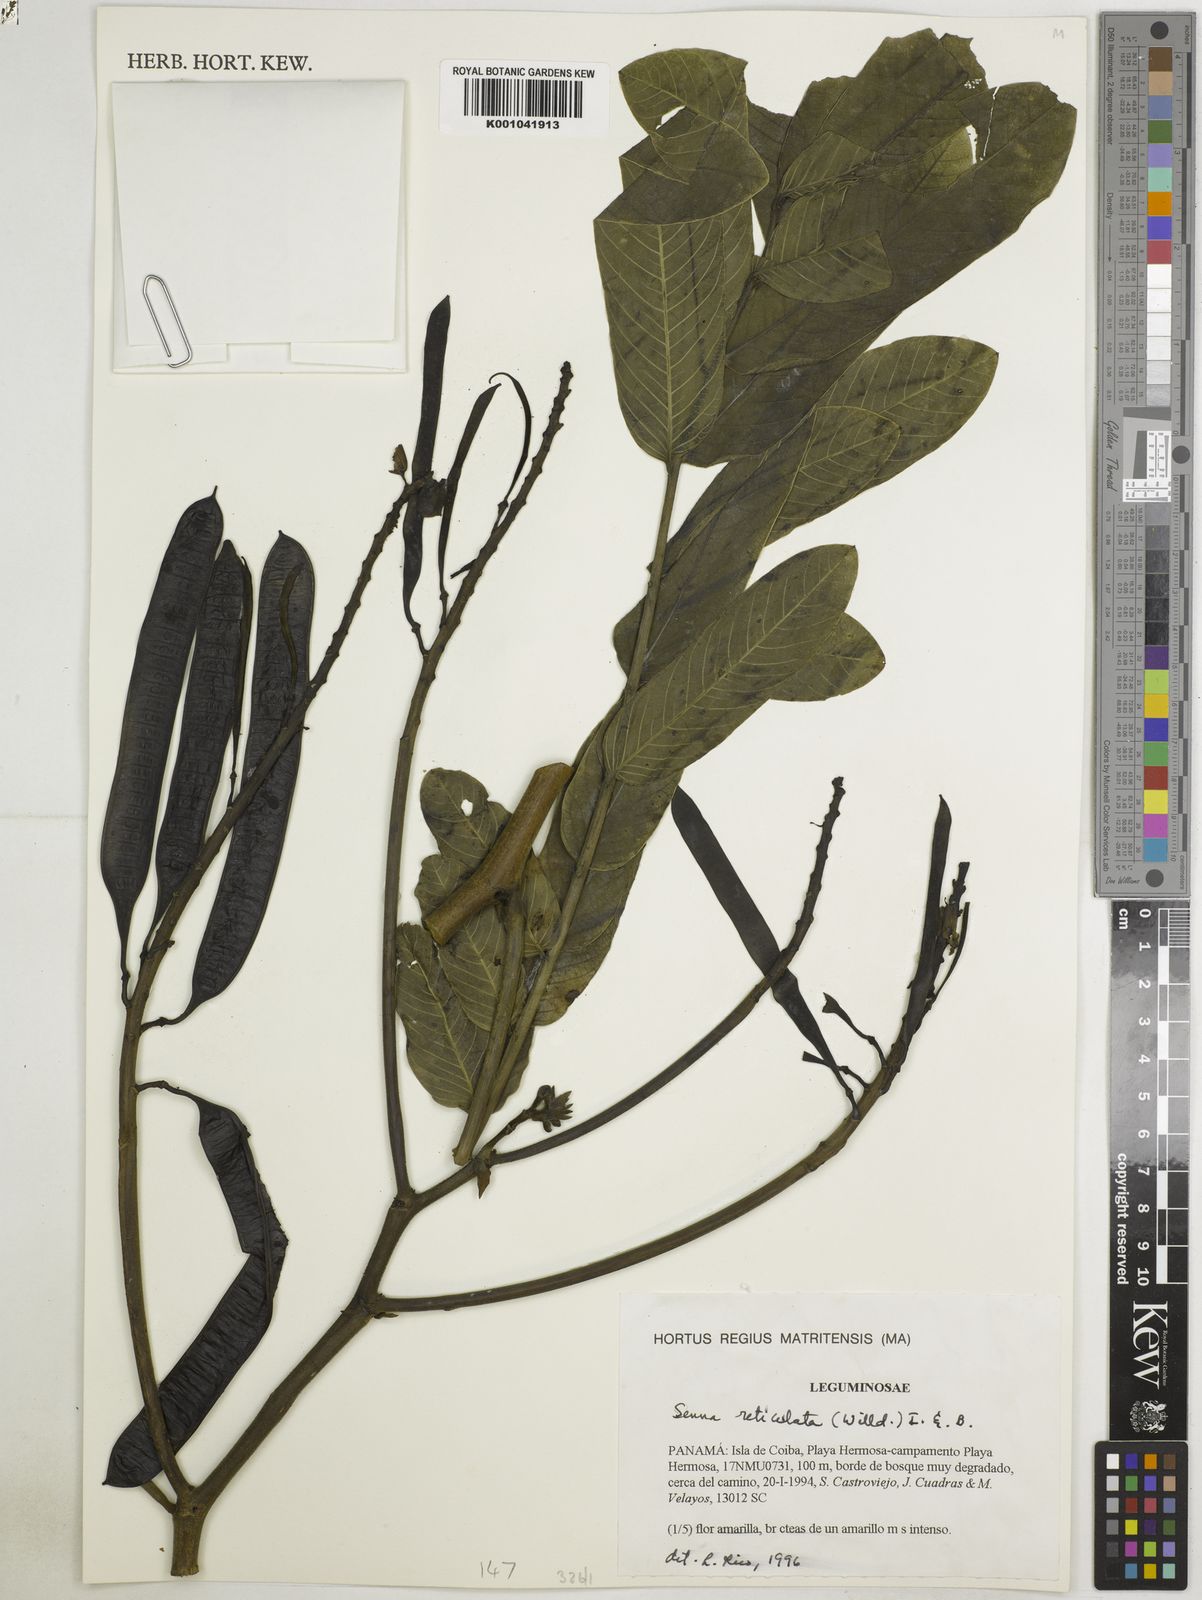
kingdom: Plantae
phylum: Tracheophyta
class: Magnoliopsida
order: Fabales
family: Fabaceae
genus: Senna
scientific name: Senna reticulata
